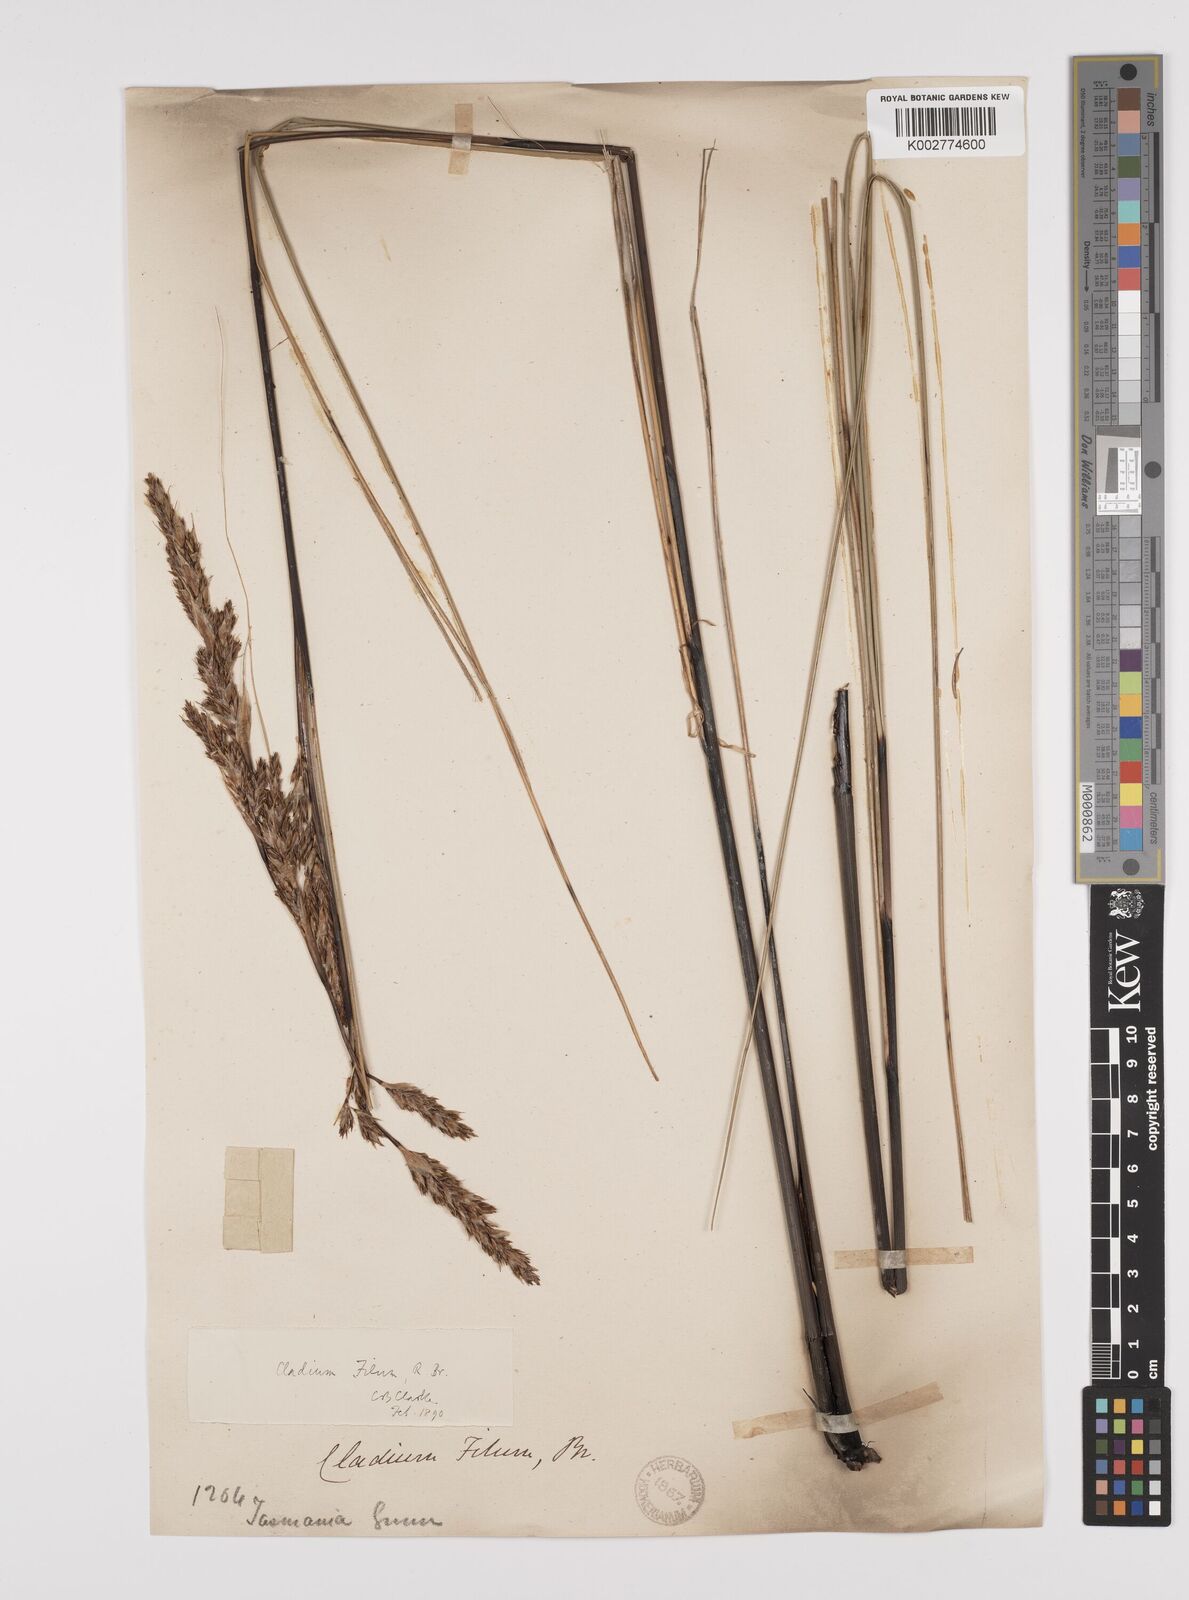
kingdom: Plantae
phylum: Tracheophyta
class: Liliopsida
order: Poales
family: Cyperaceae
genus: Gahnia
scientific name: Gahnia filum
